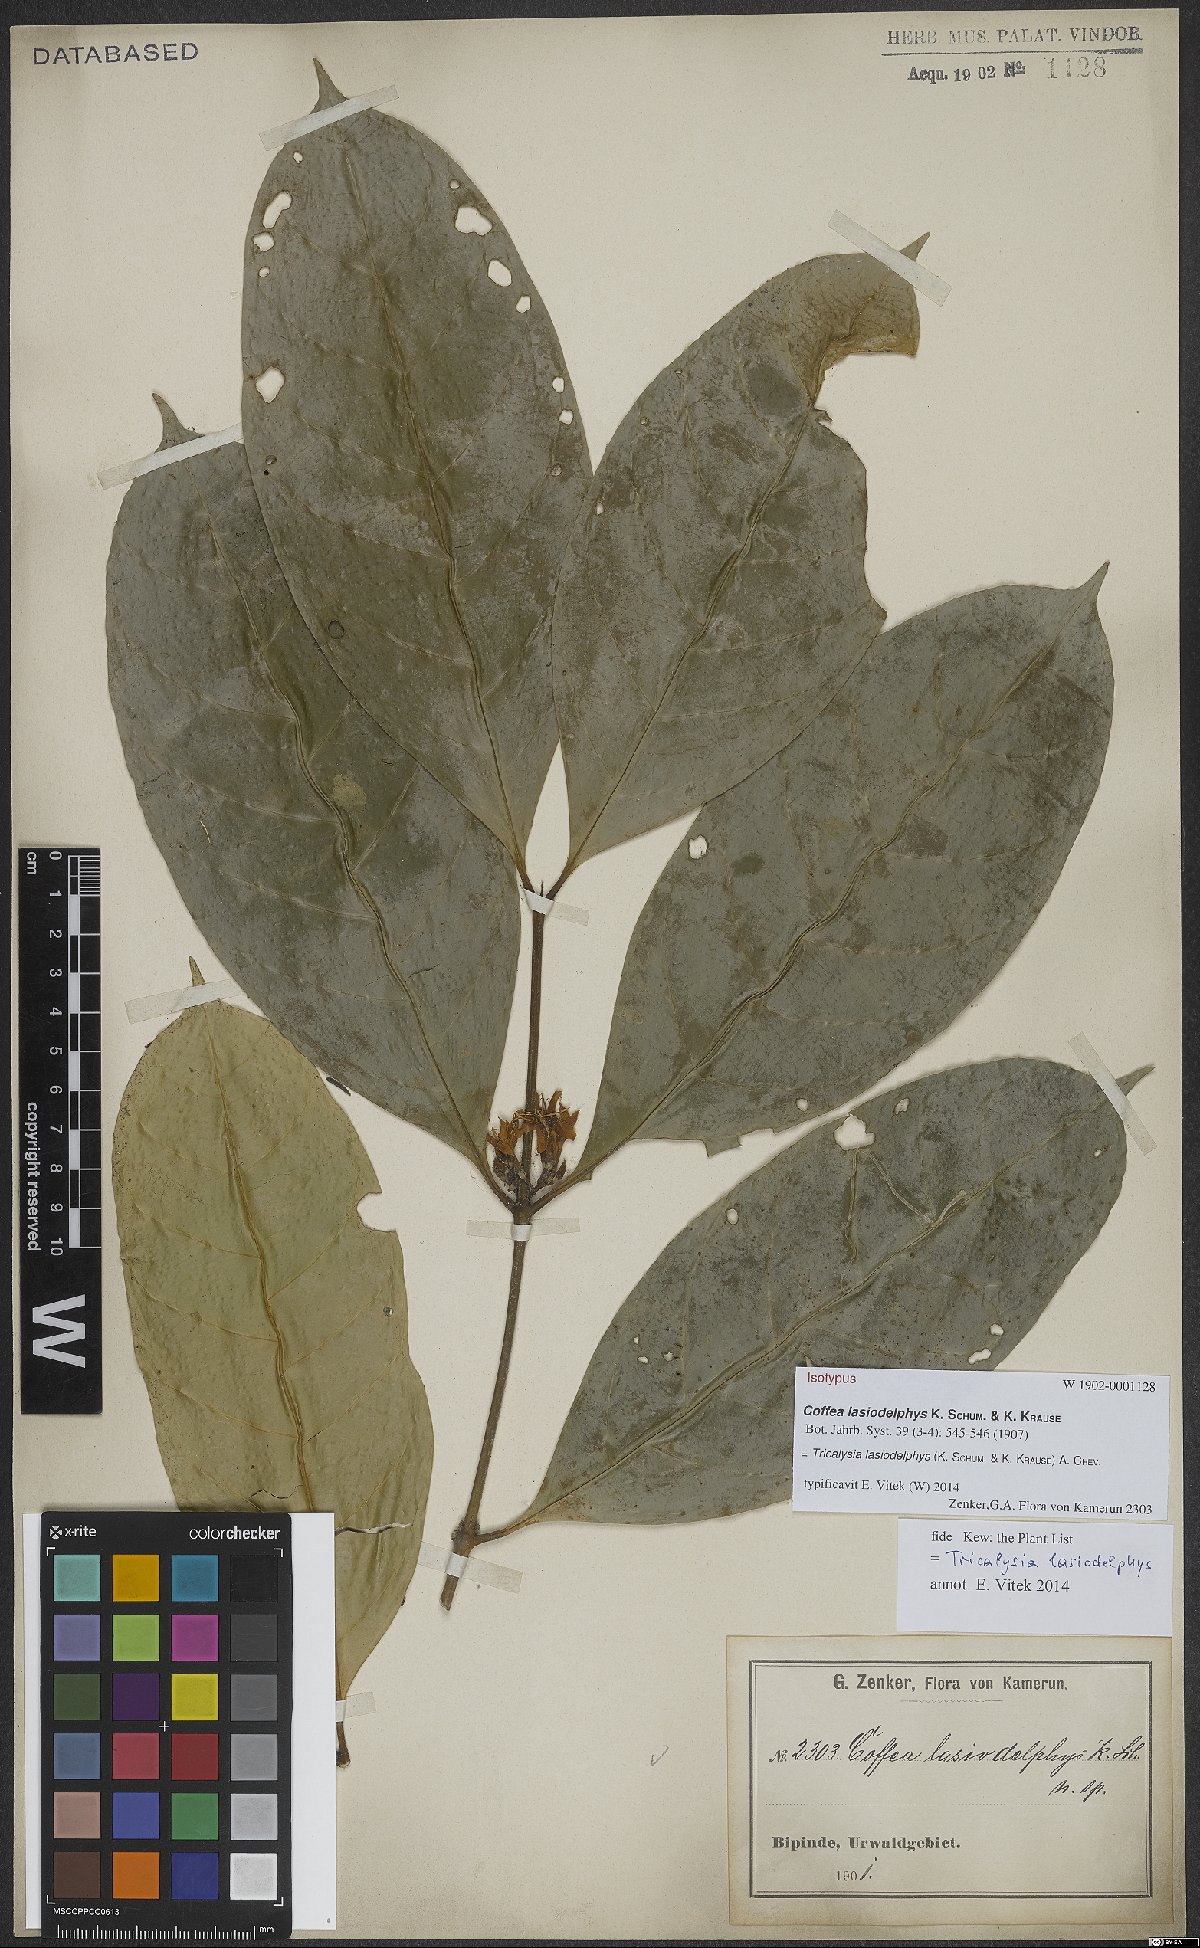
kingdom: Plantae
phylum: Tracheophyta
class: Magnoliopsida
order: Gentianales
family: Rubiaceae
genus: Tricalysia
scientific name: Tricalysia lasiodelphys
